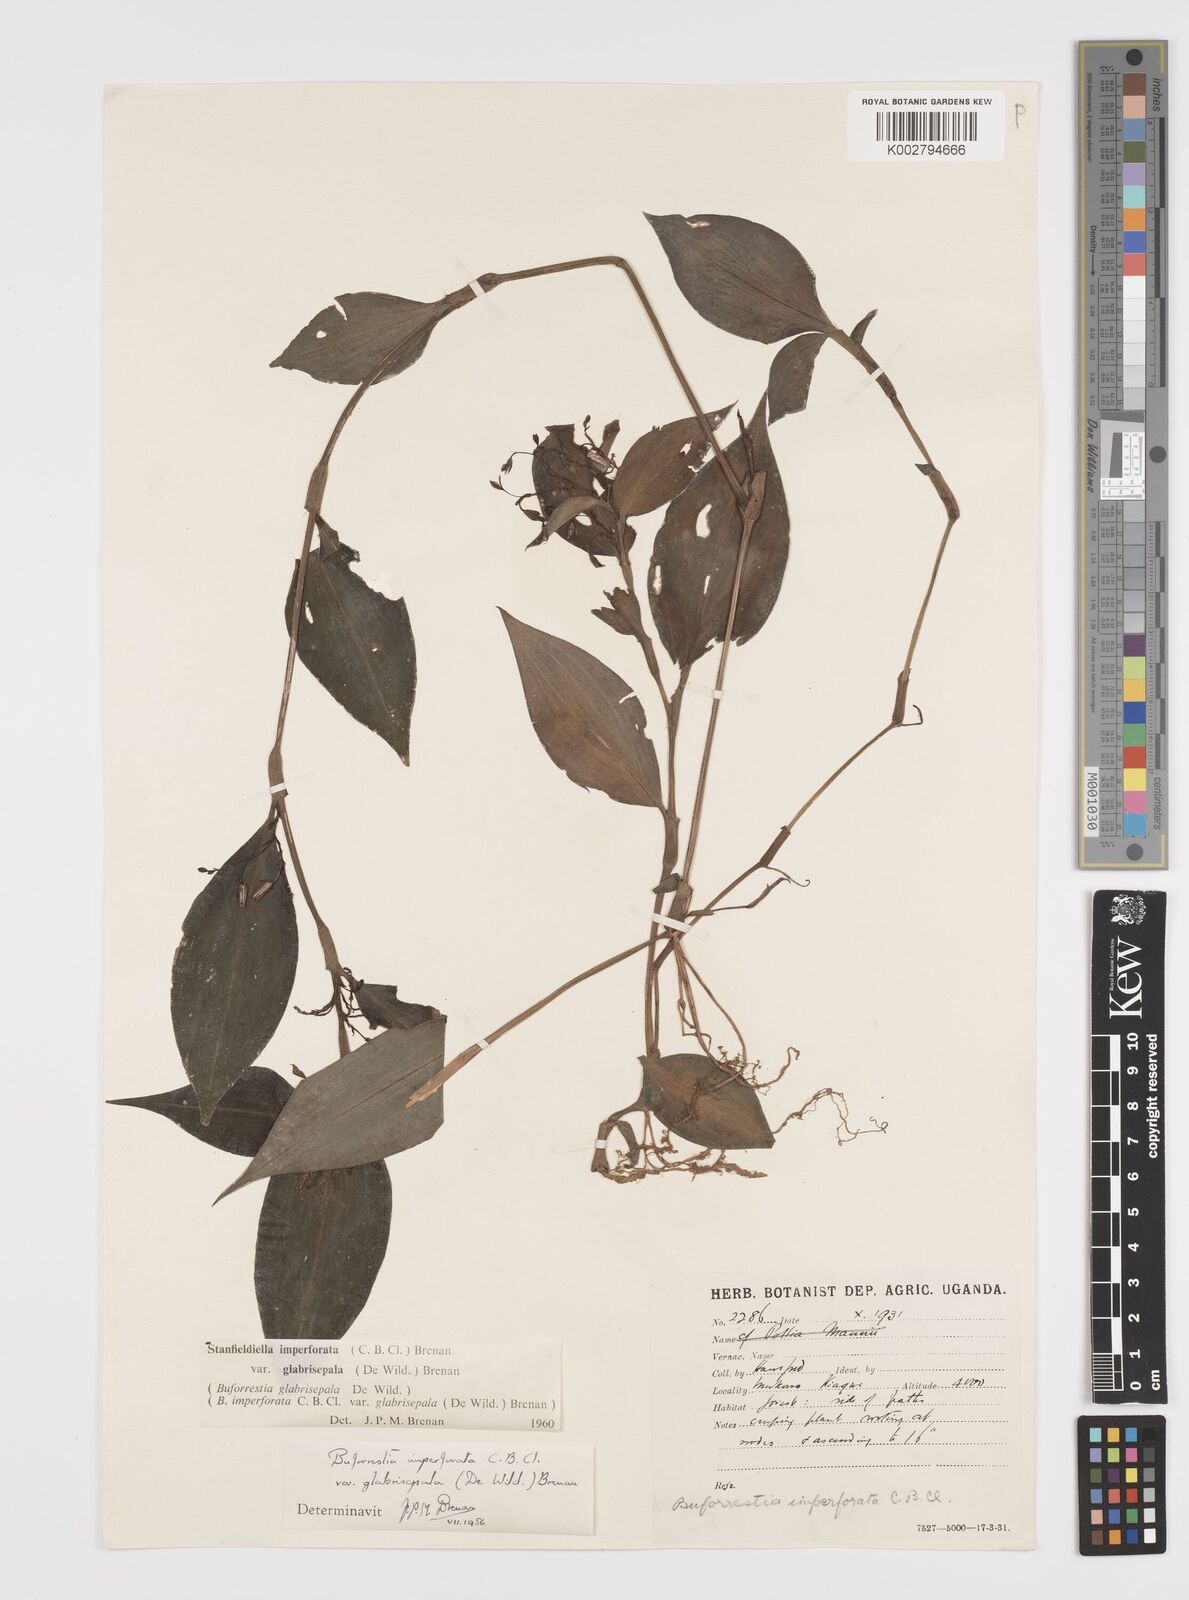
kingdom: Plantae
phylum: Tracheophyta
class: Liliopsida
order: Commelinales
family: Commelinaceae
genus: Stanfieldiella
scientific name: Stanfieldiella imperforata
